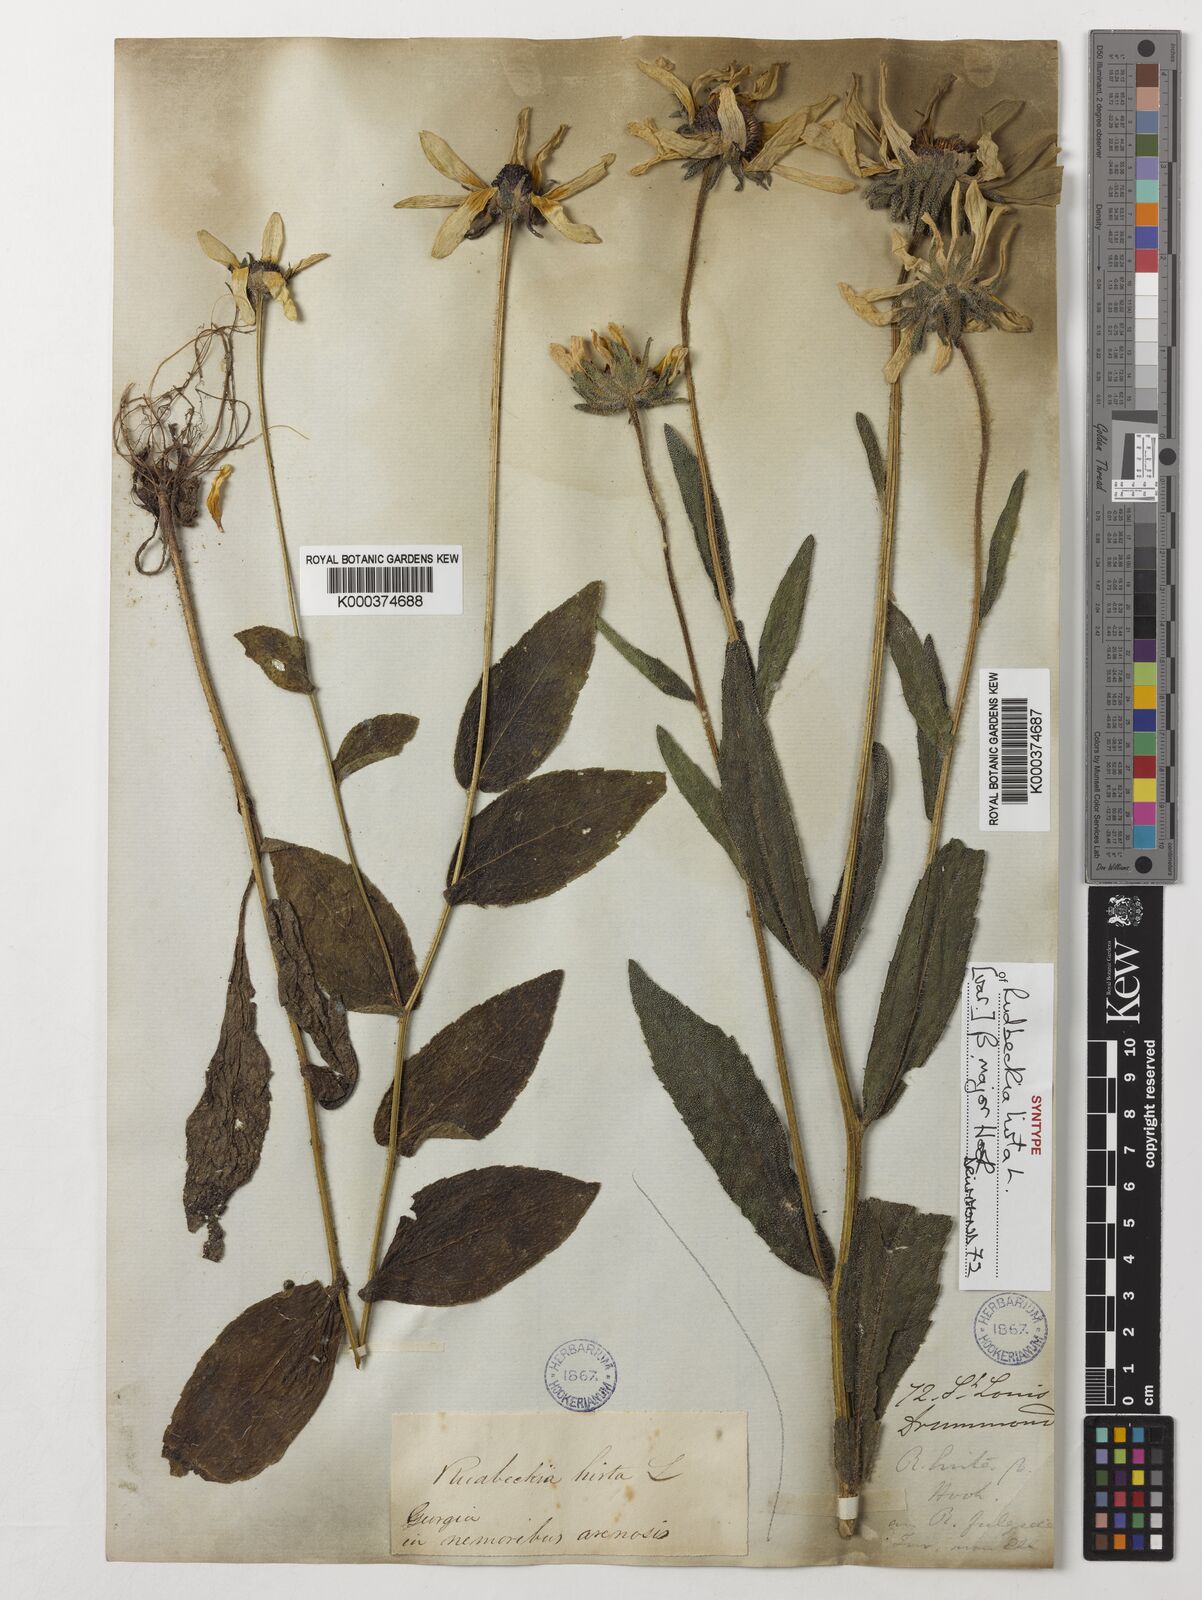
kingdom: Plantae
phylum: Tracheophyta
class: Magnoliopsida
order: Asterales
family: Asteraceae
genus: Rudbeckia
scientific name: Rudbeckia hirta
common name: Black-eyed-susan
